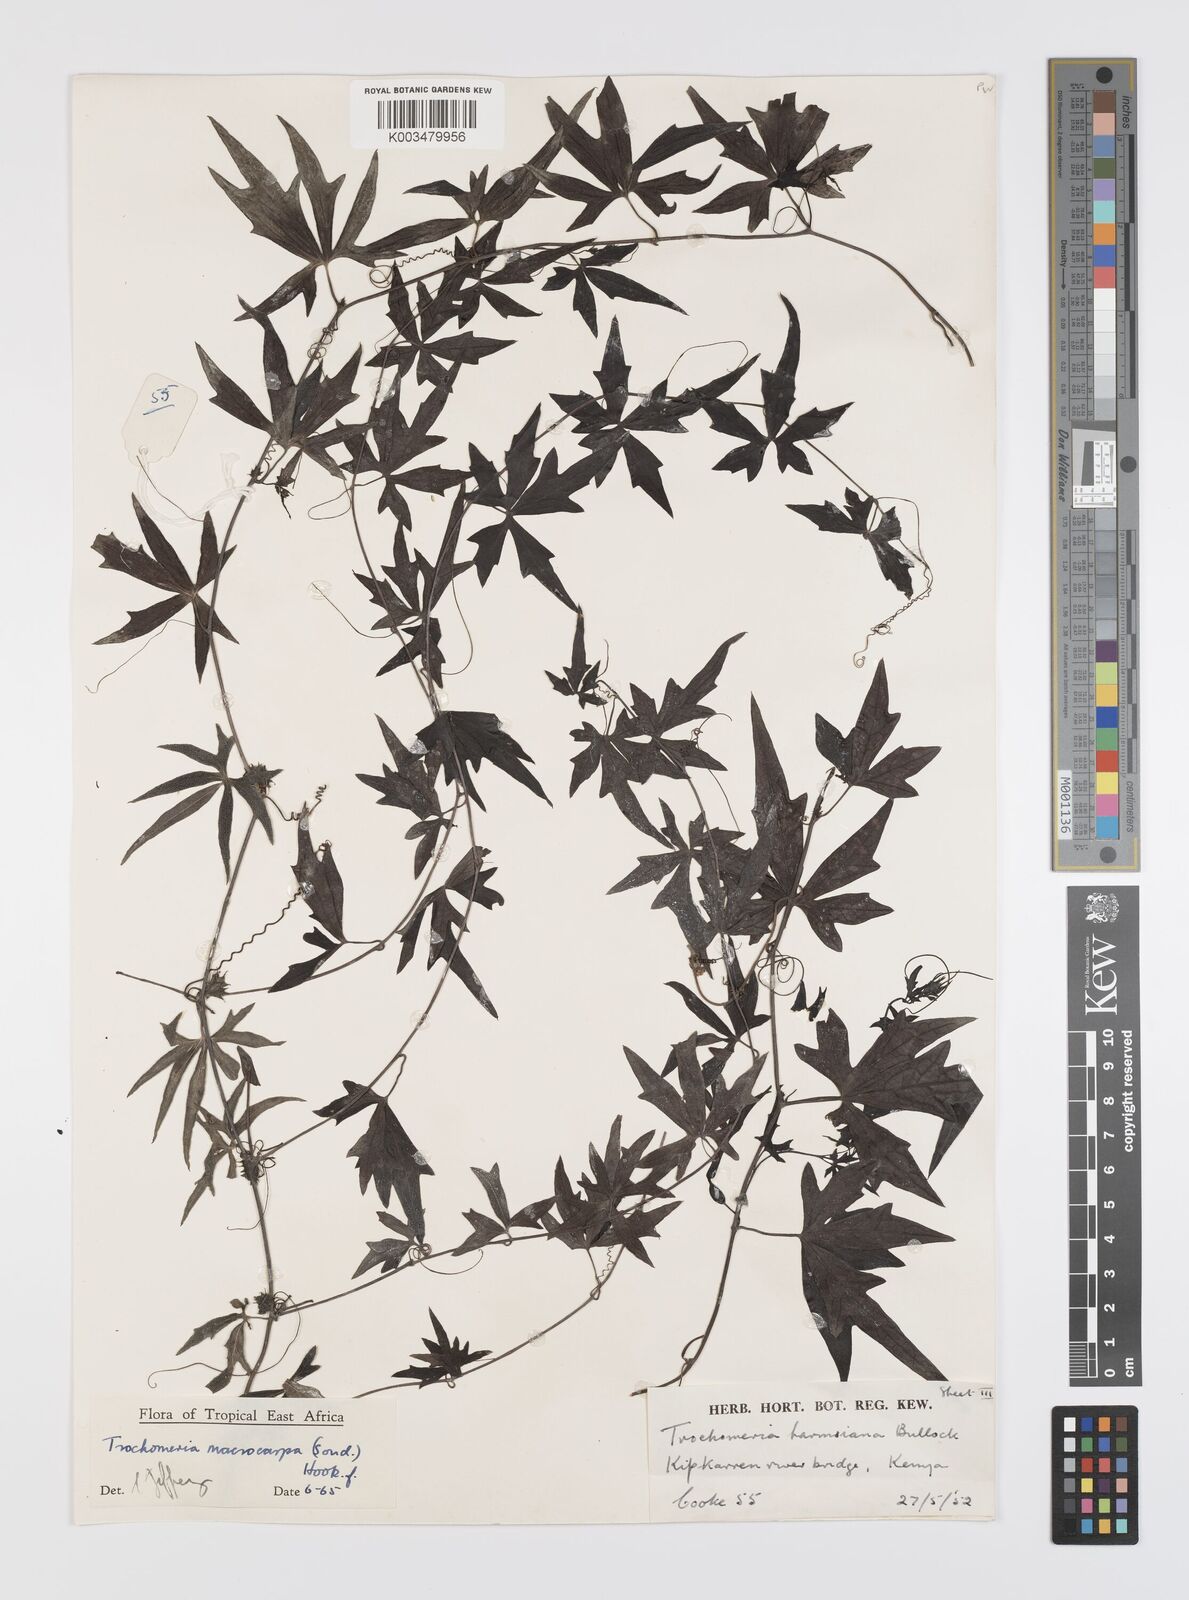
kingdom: Plantae
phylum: Tracheophyta
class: Magnoliopsida
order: Cucurbitales
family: Cucurbitaceae
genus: Trochomeria
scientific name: Trochomeria macrocarpa
